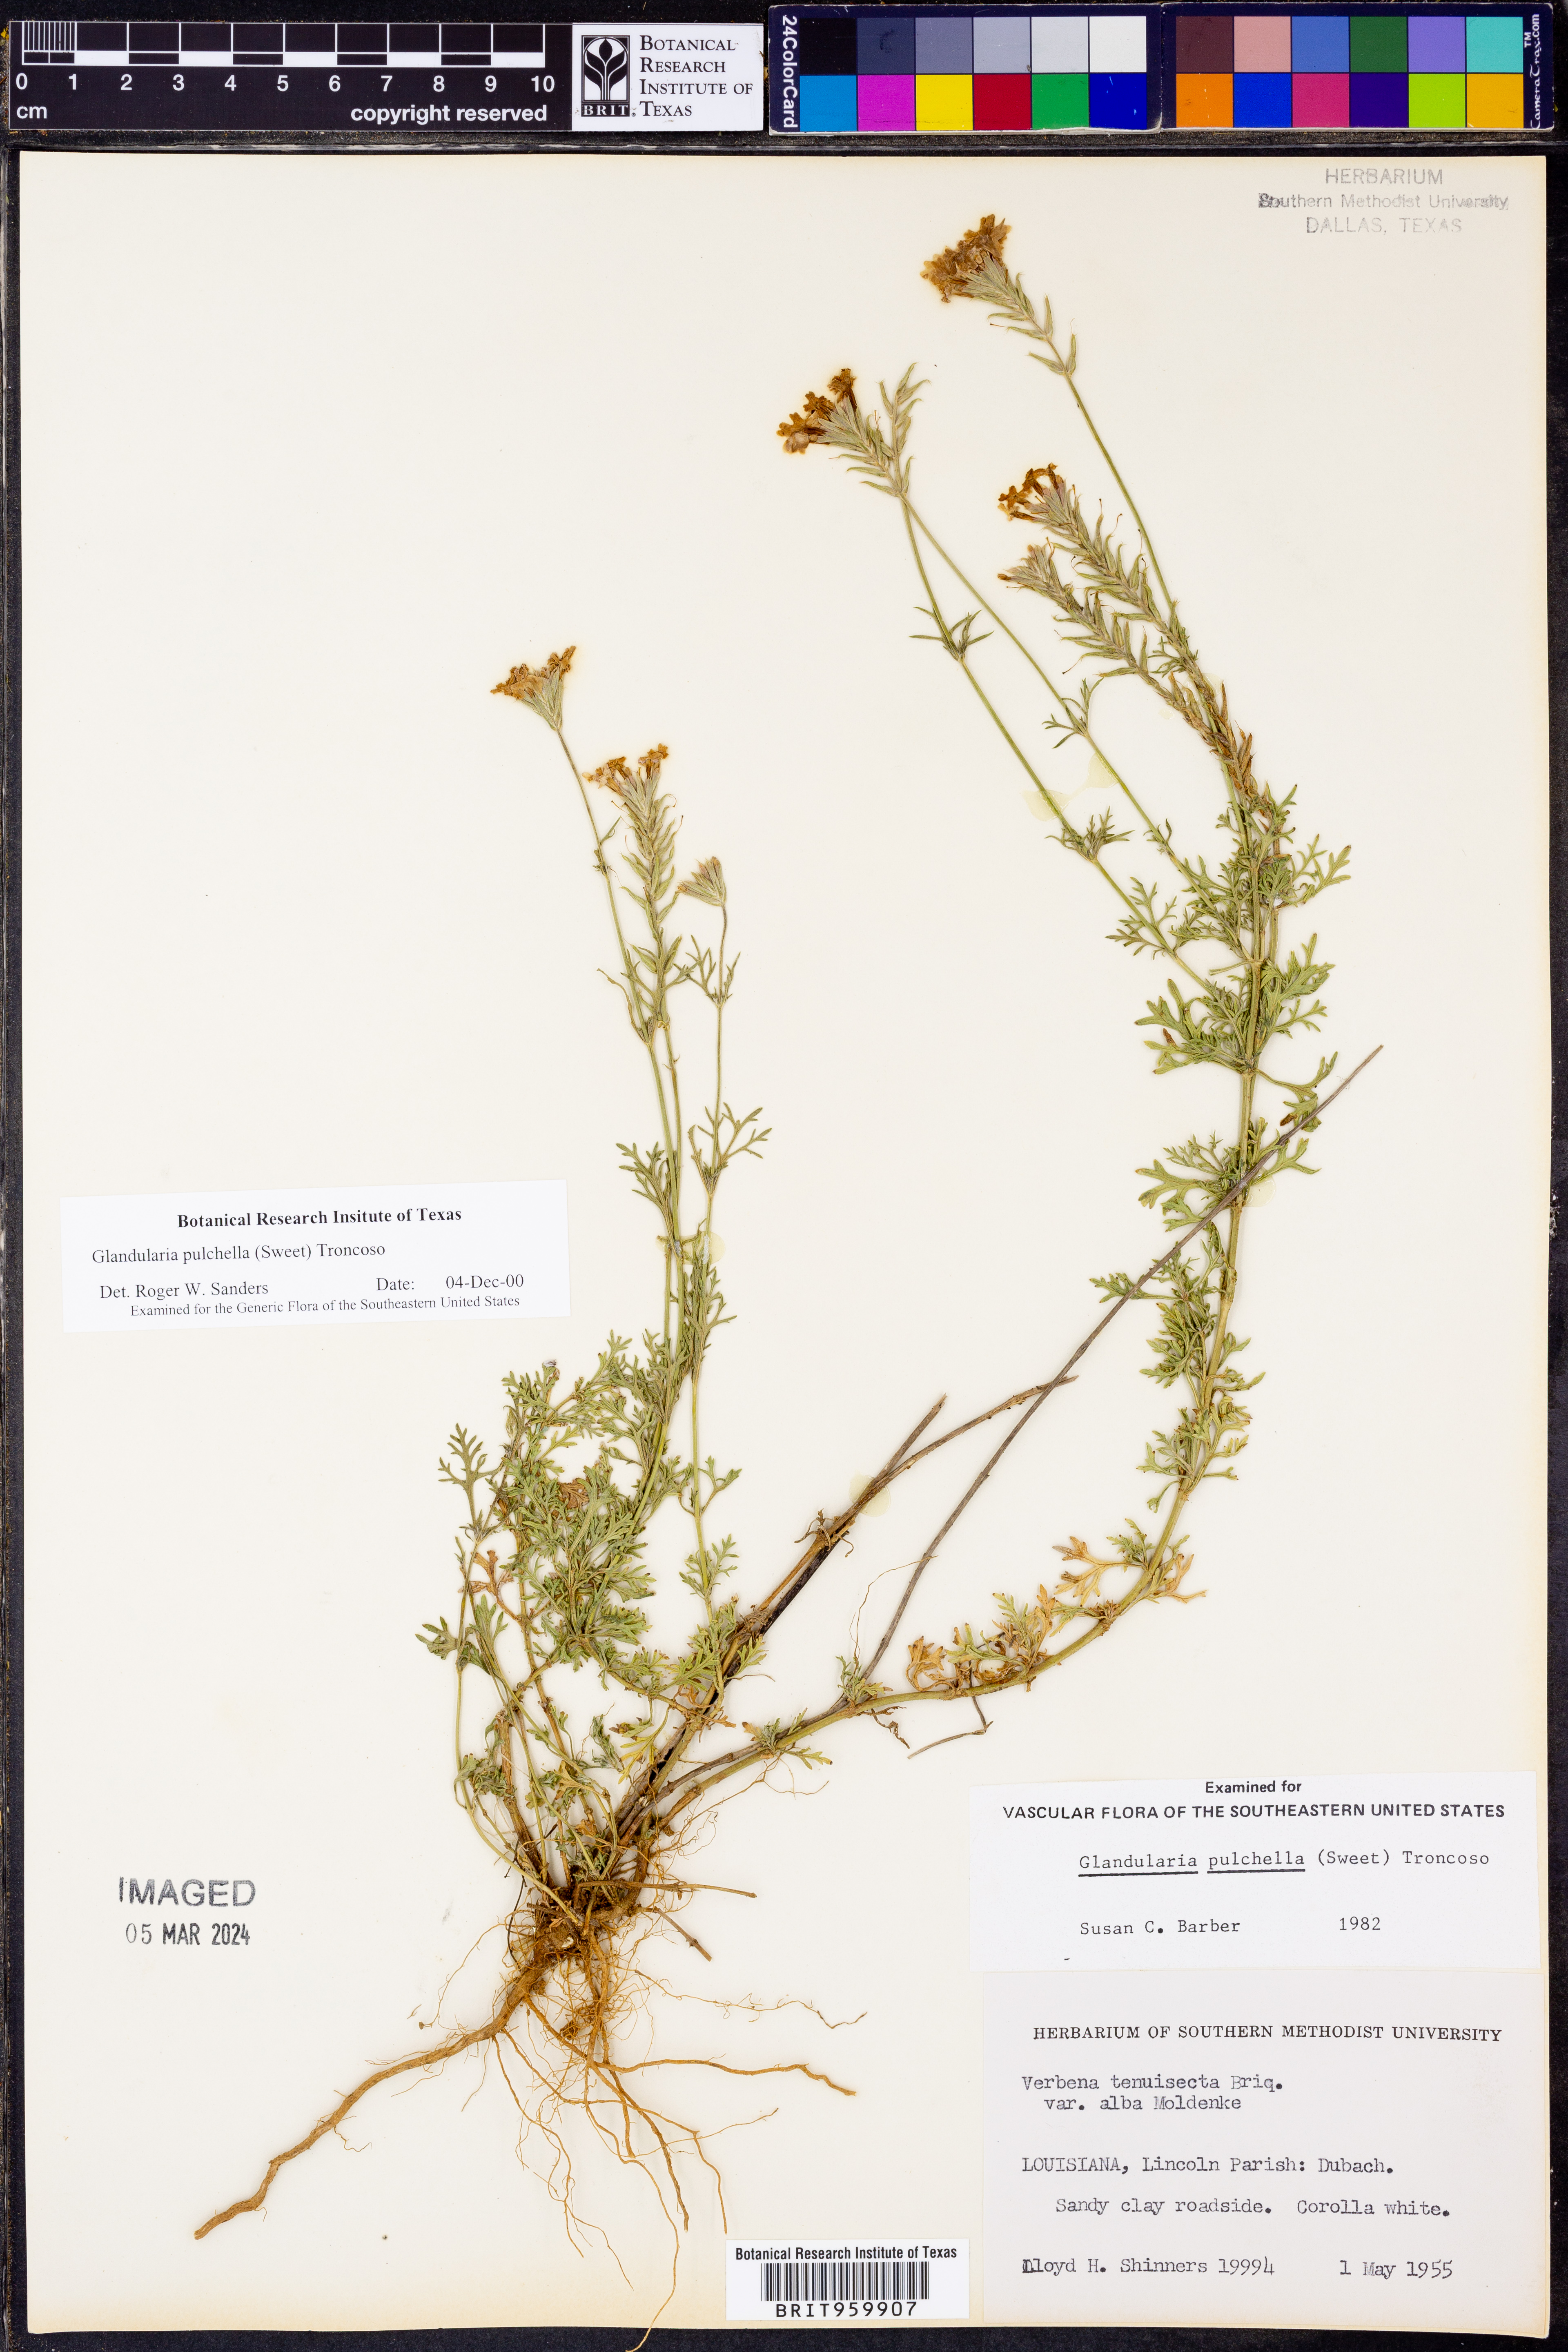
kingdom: Plantae
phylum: Tracheophyta
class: Magnoliopsida
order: Lamiales
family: Verbenaceae
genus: Verbena
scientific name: Verbena tenera
